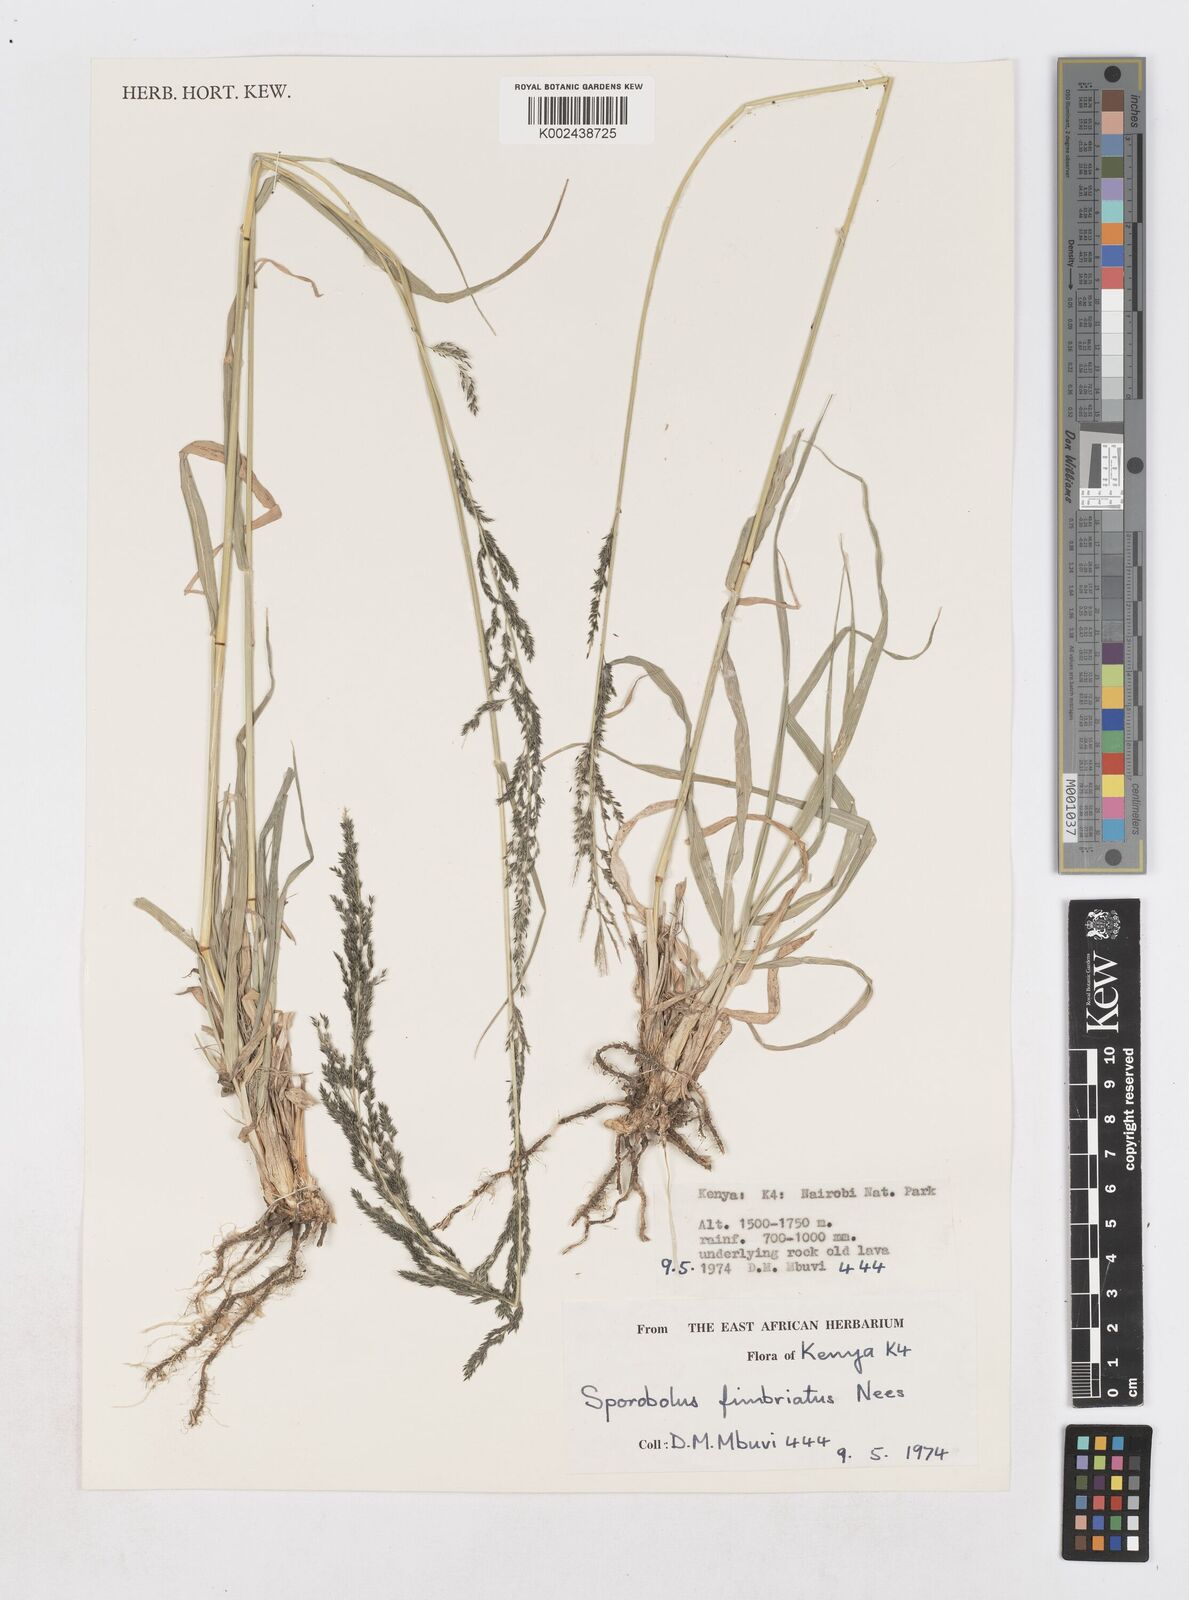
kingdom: Plantae
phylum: Tracheophyta
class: Liliopsida
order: Poales
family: Poaceae
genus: Sporobolus
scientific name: Sporobolus fimbriatus
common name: Fringed dropseed
